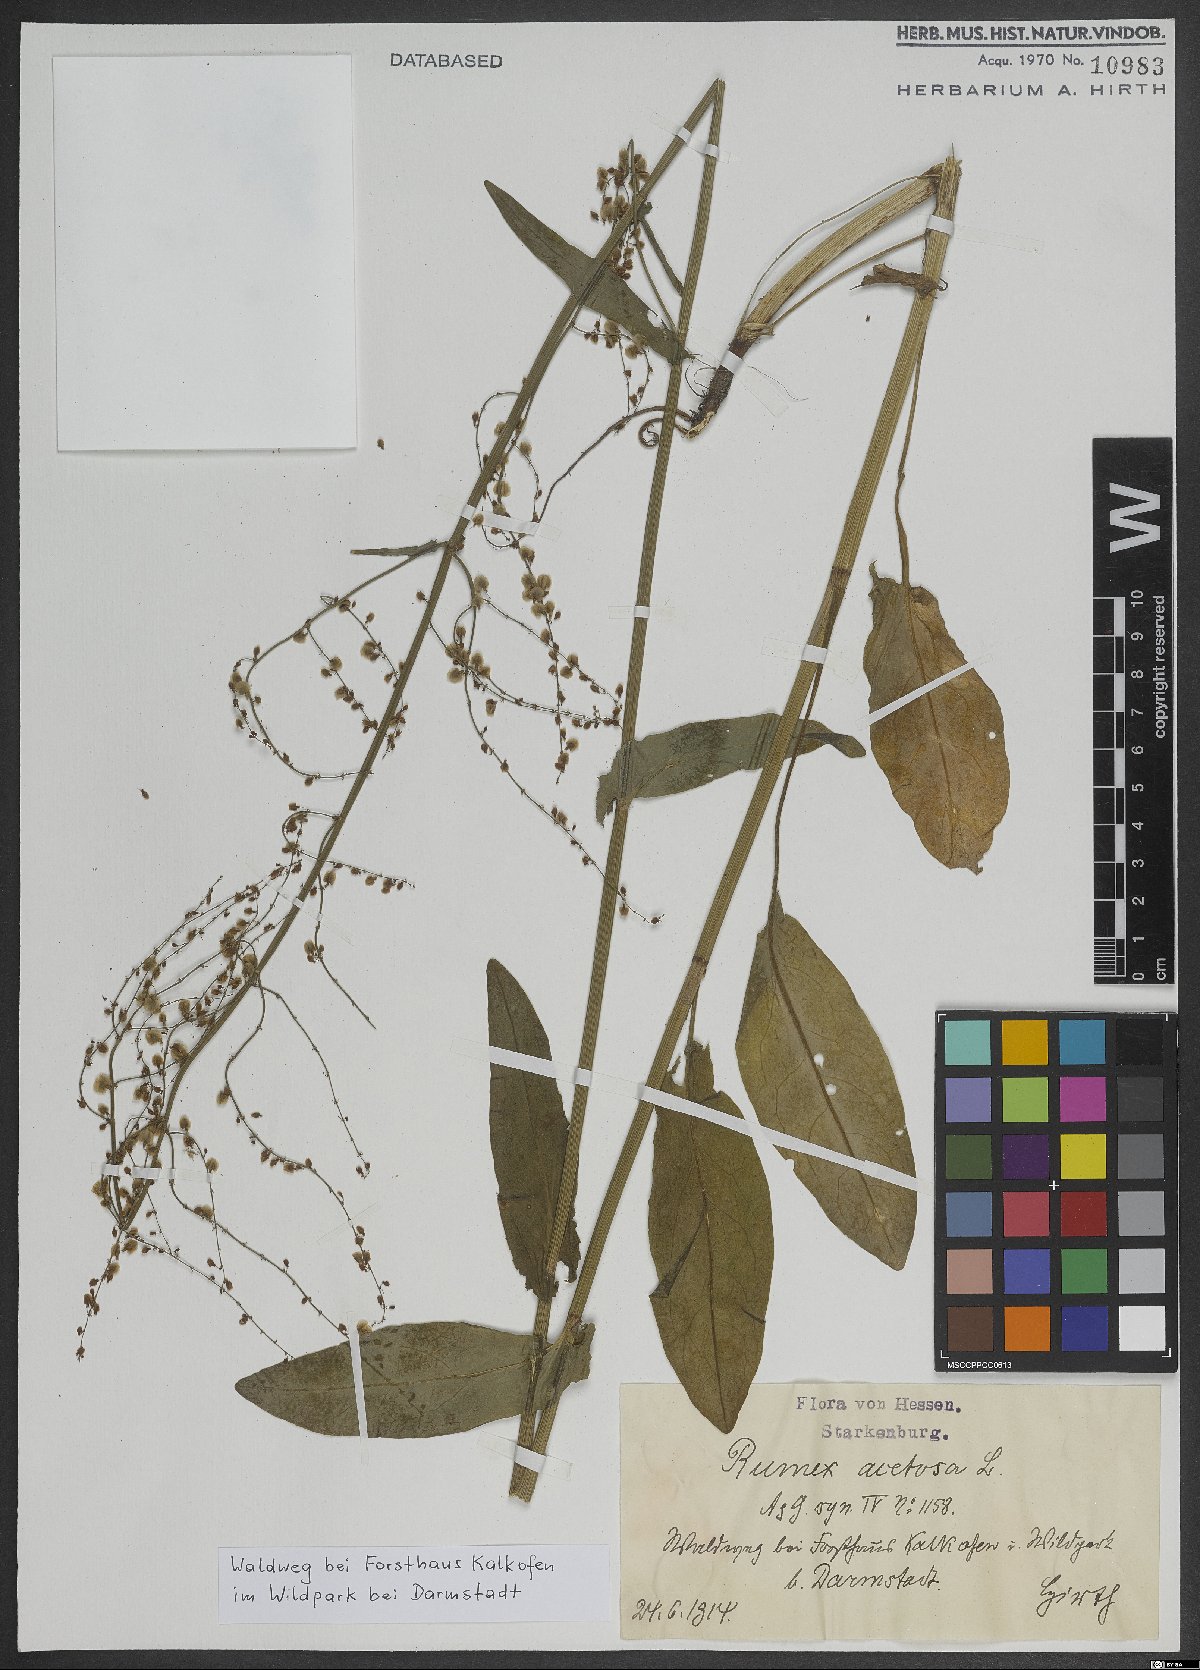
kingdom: Plantae
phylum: Tracheophyta
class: Magnoliopsida
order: Caryophyllales
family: Polygonaceae
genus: Rumex
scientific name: Rumex acetosa
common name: Garden sorrel
